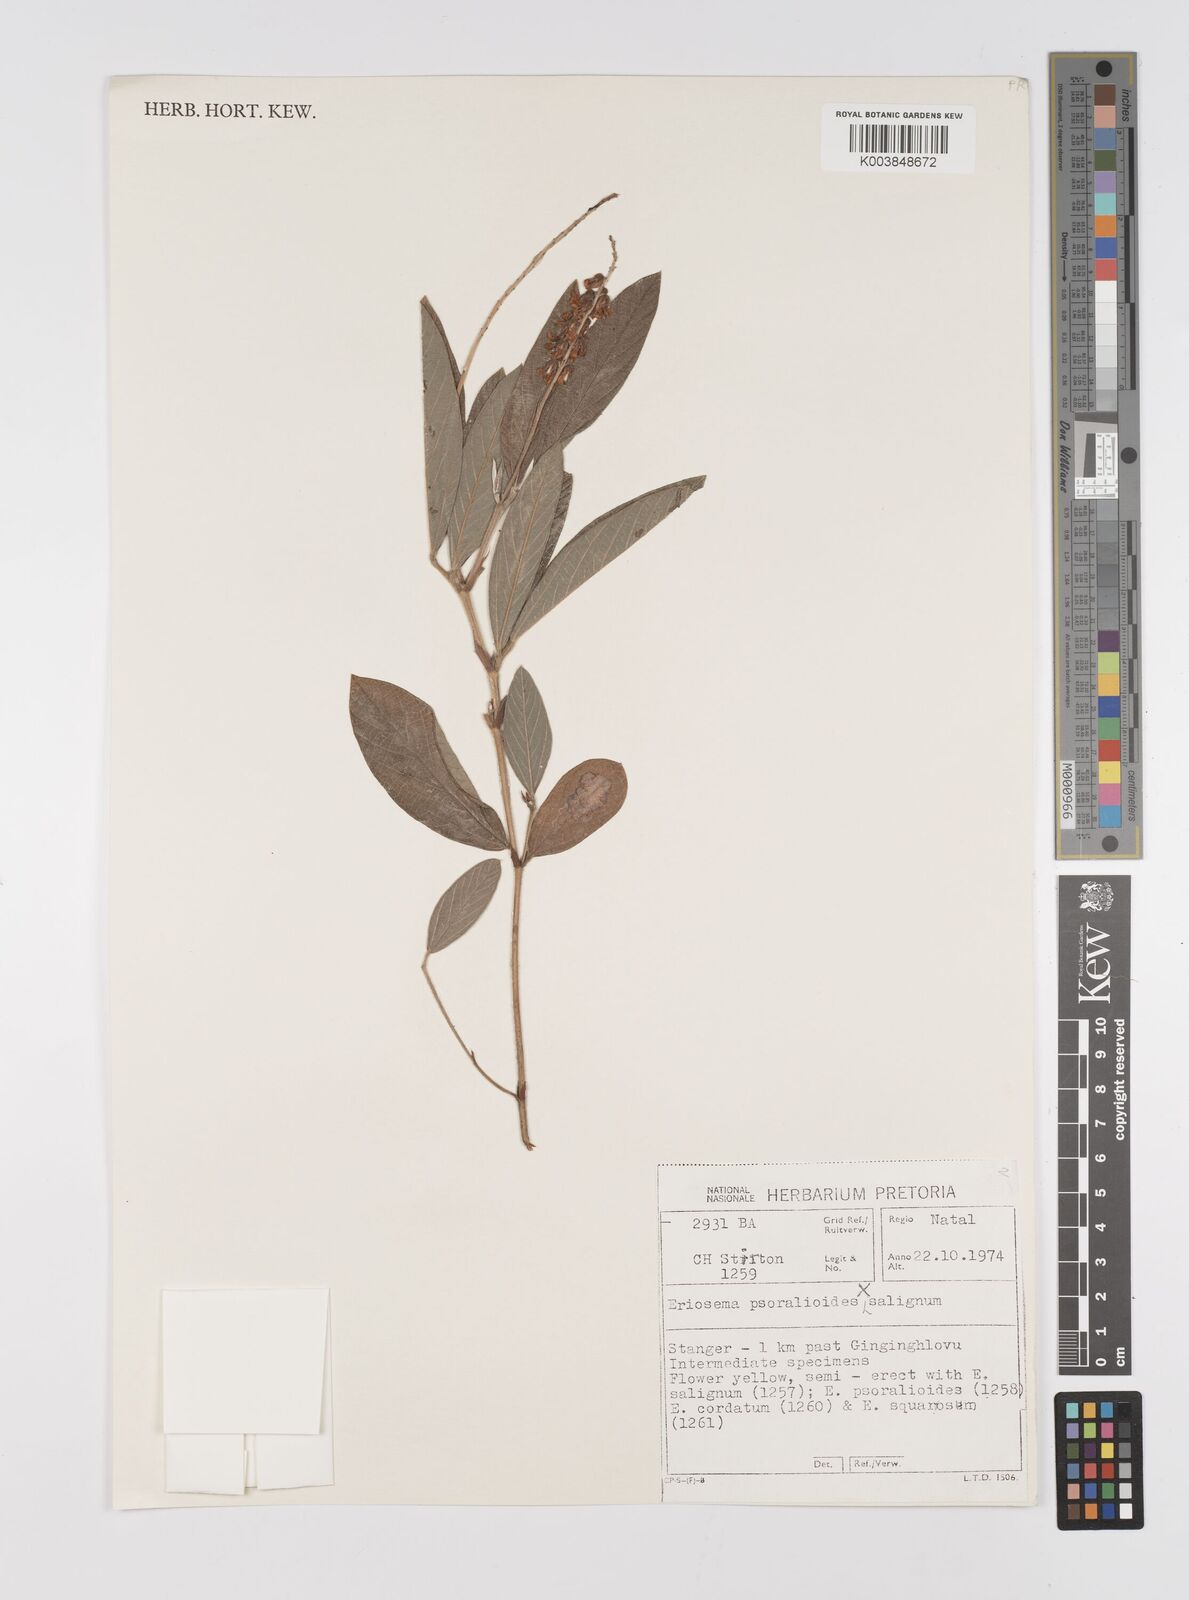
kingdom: Plantae
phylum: Tracheophyta
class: Magnoliopsida
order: Fabales
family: Fabaceae
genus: Eriosema
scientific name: Eriosema psoraleoides
